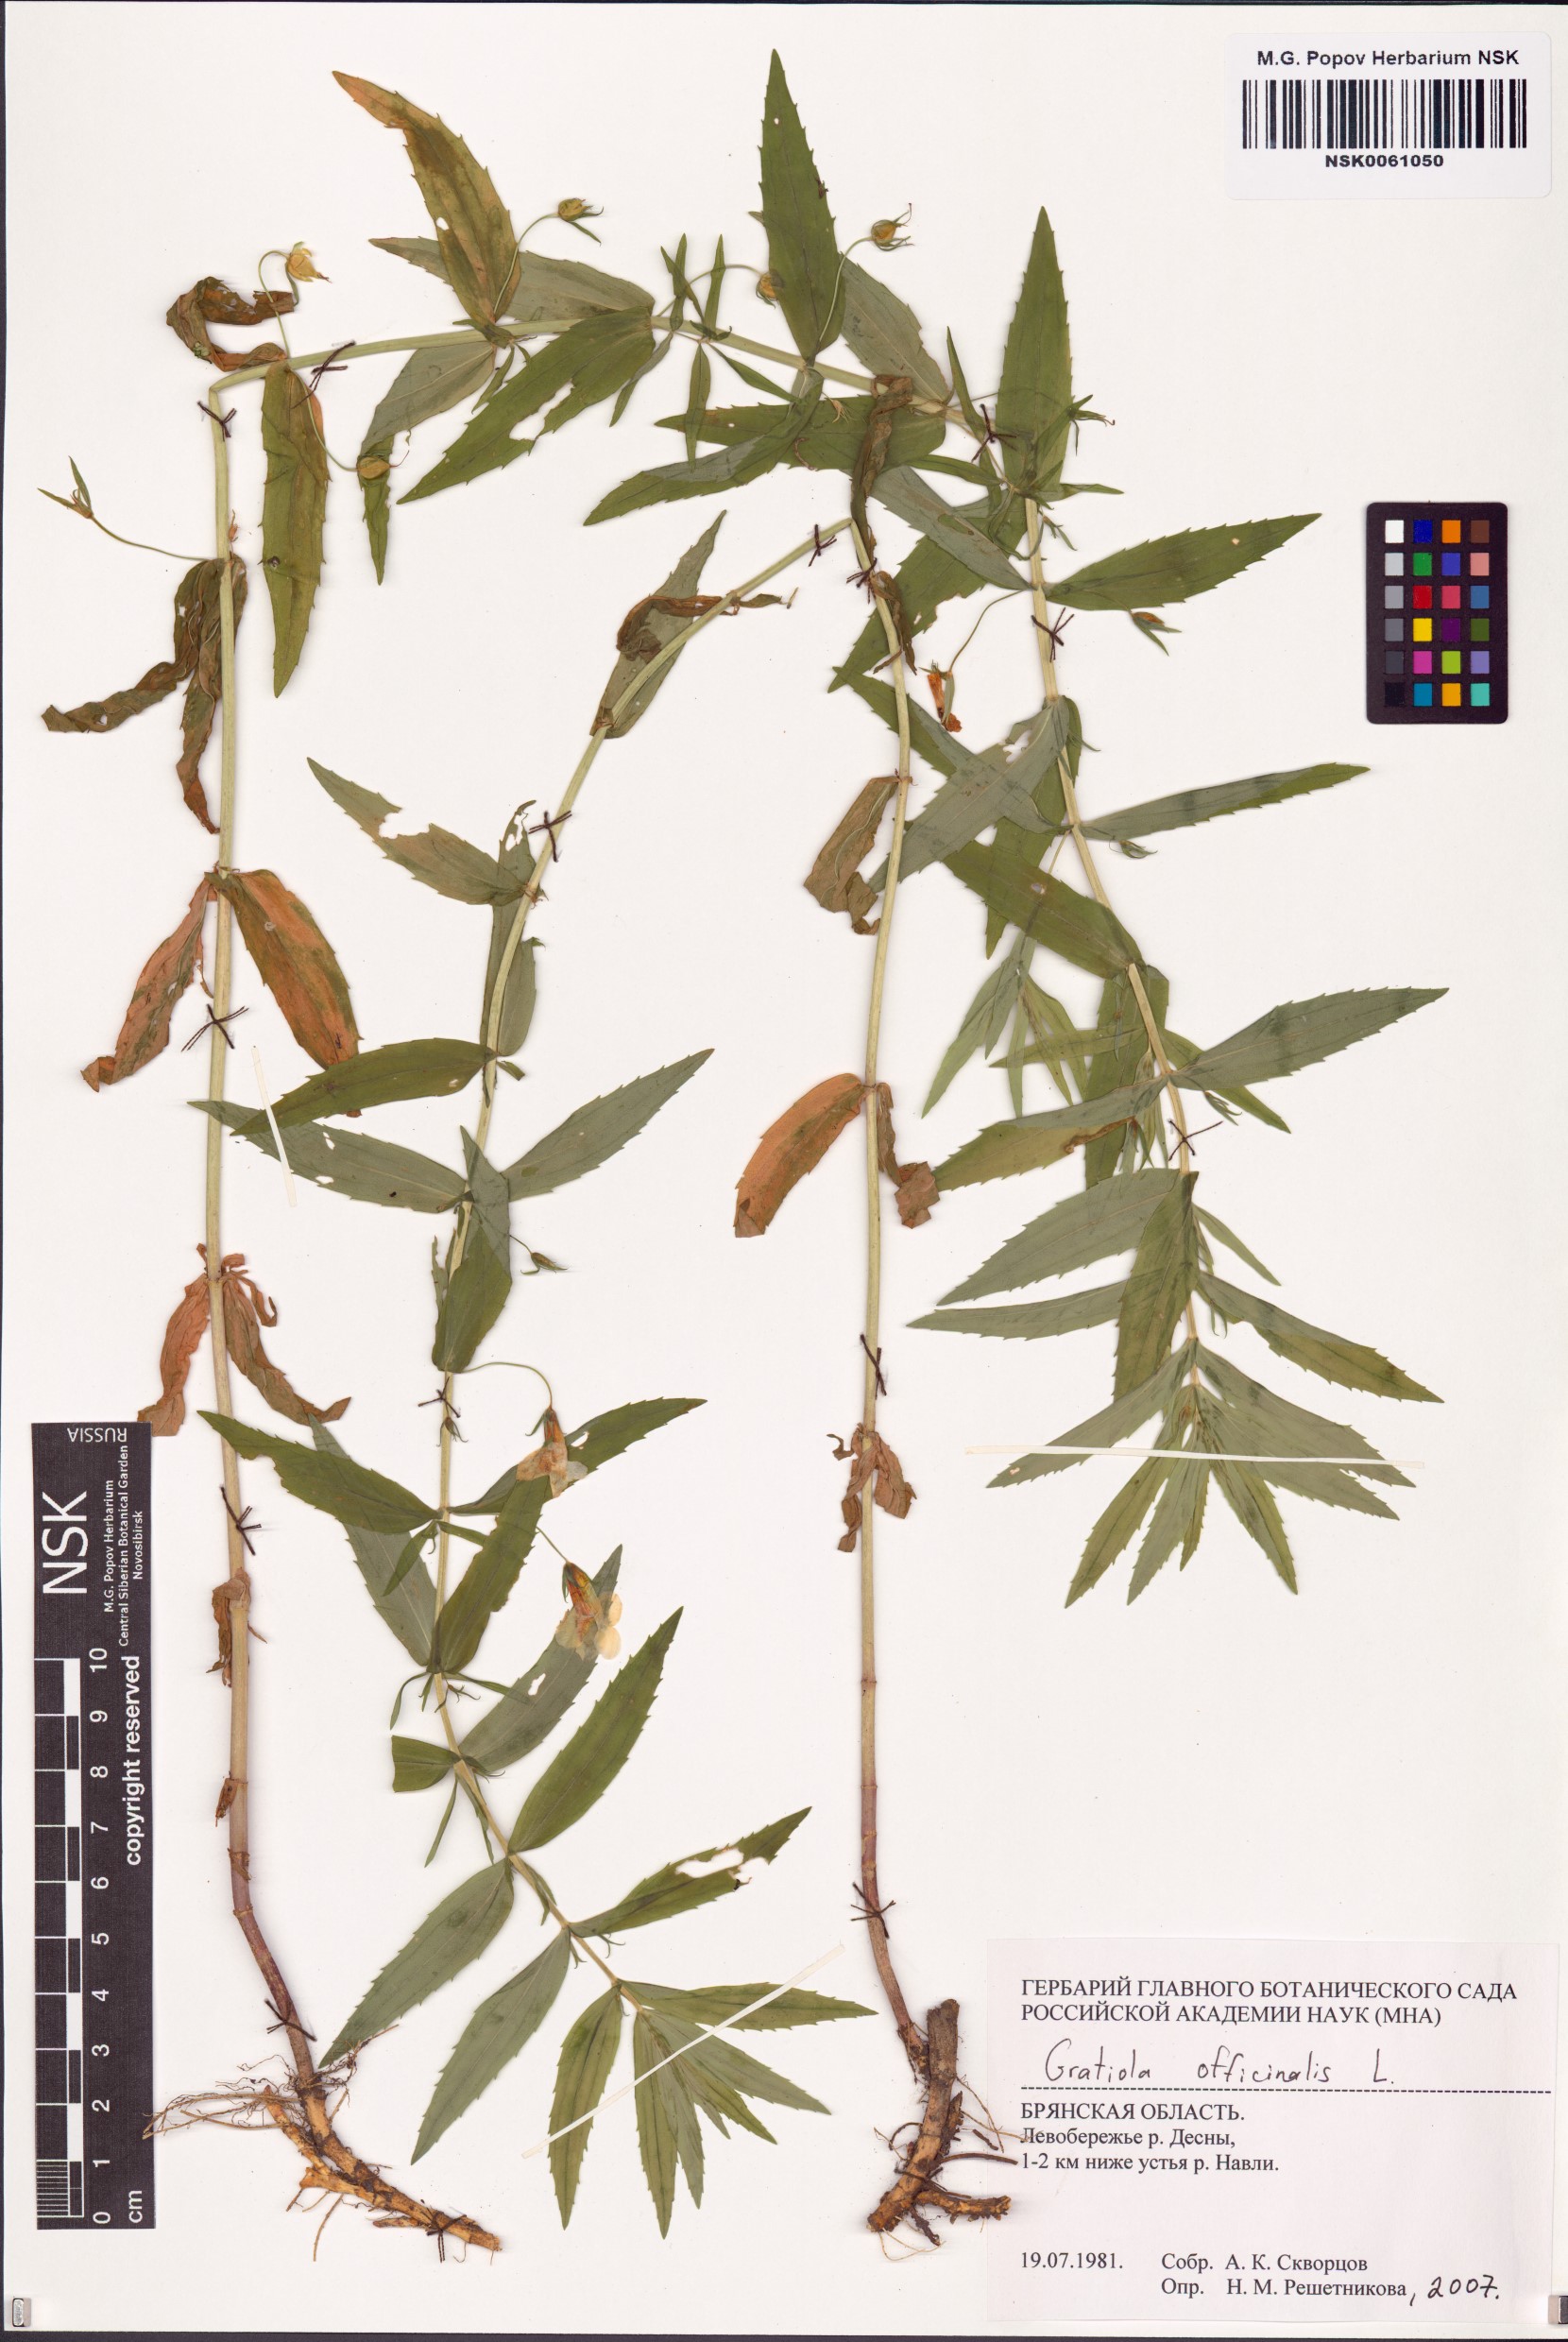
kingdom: Plantae
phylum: Tracheophyta
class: Magnoliopsida
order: Lamiales
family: Plantaginaceae
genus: Gratiola
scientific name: Gratiola officinalis
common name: Gratiola
